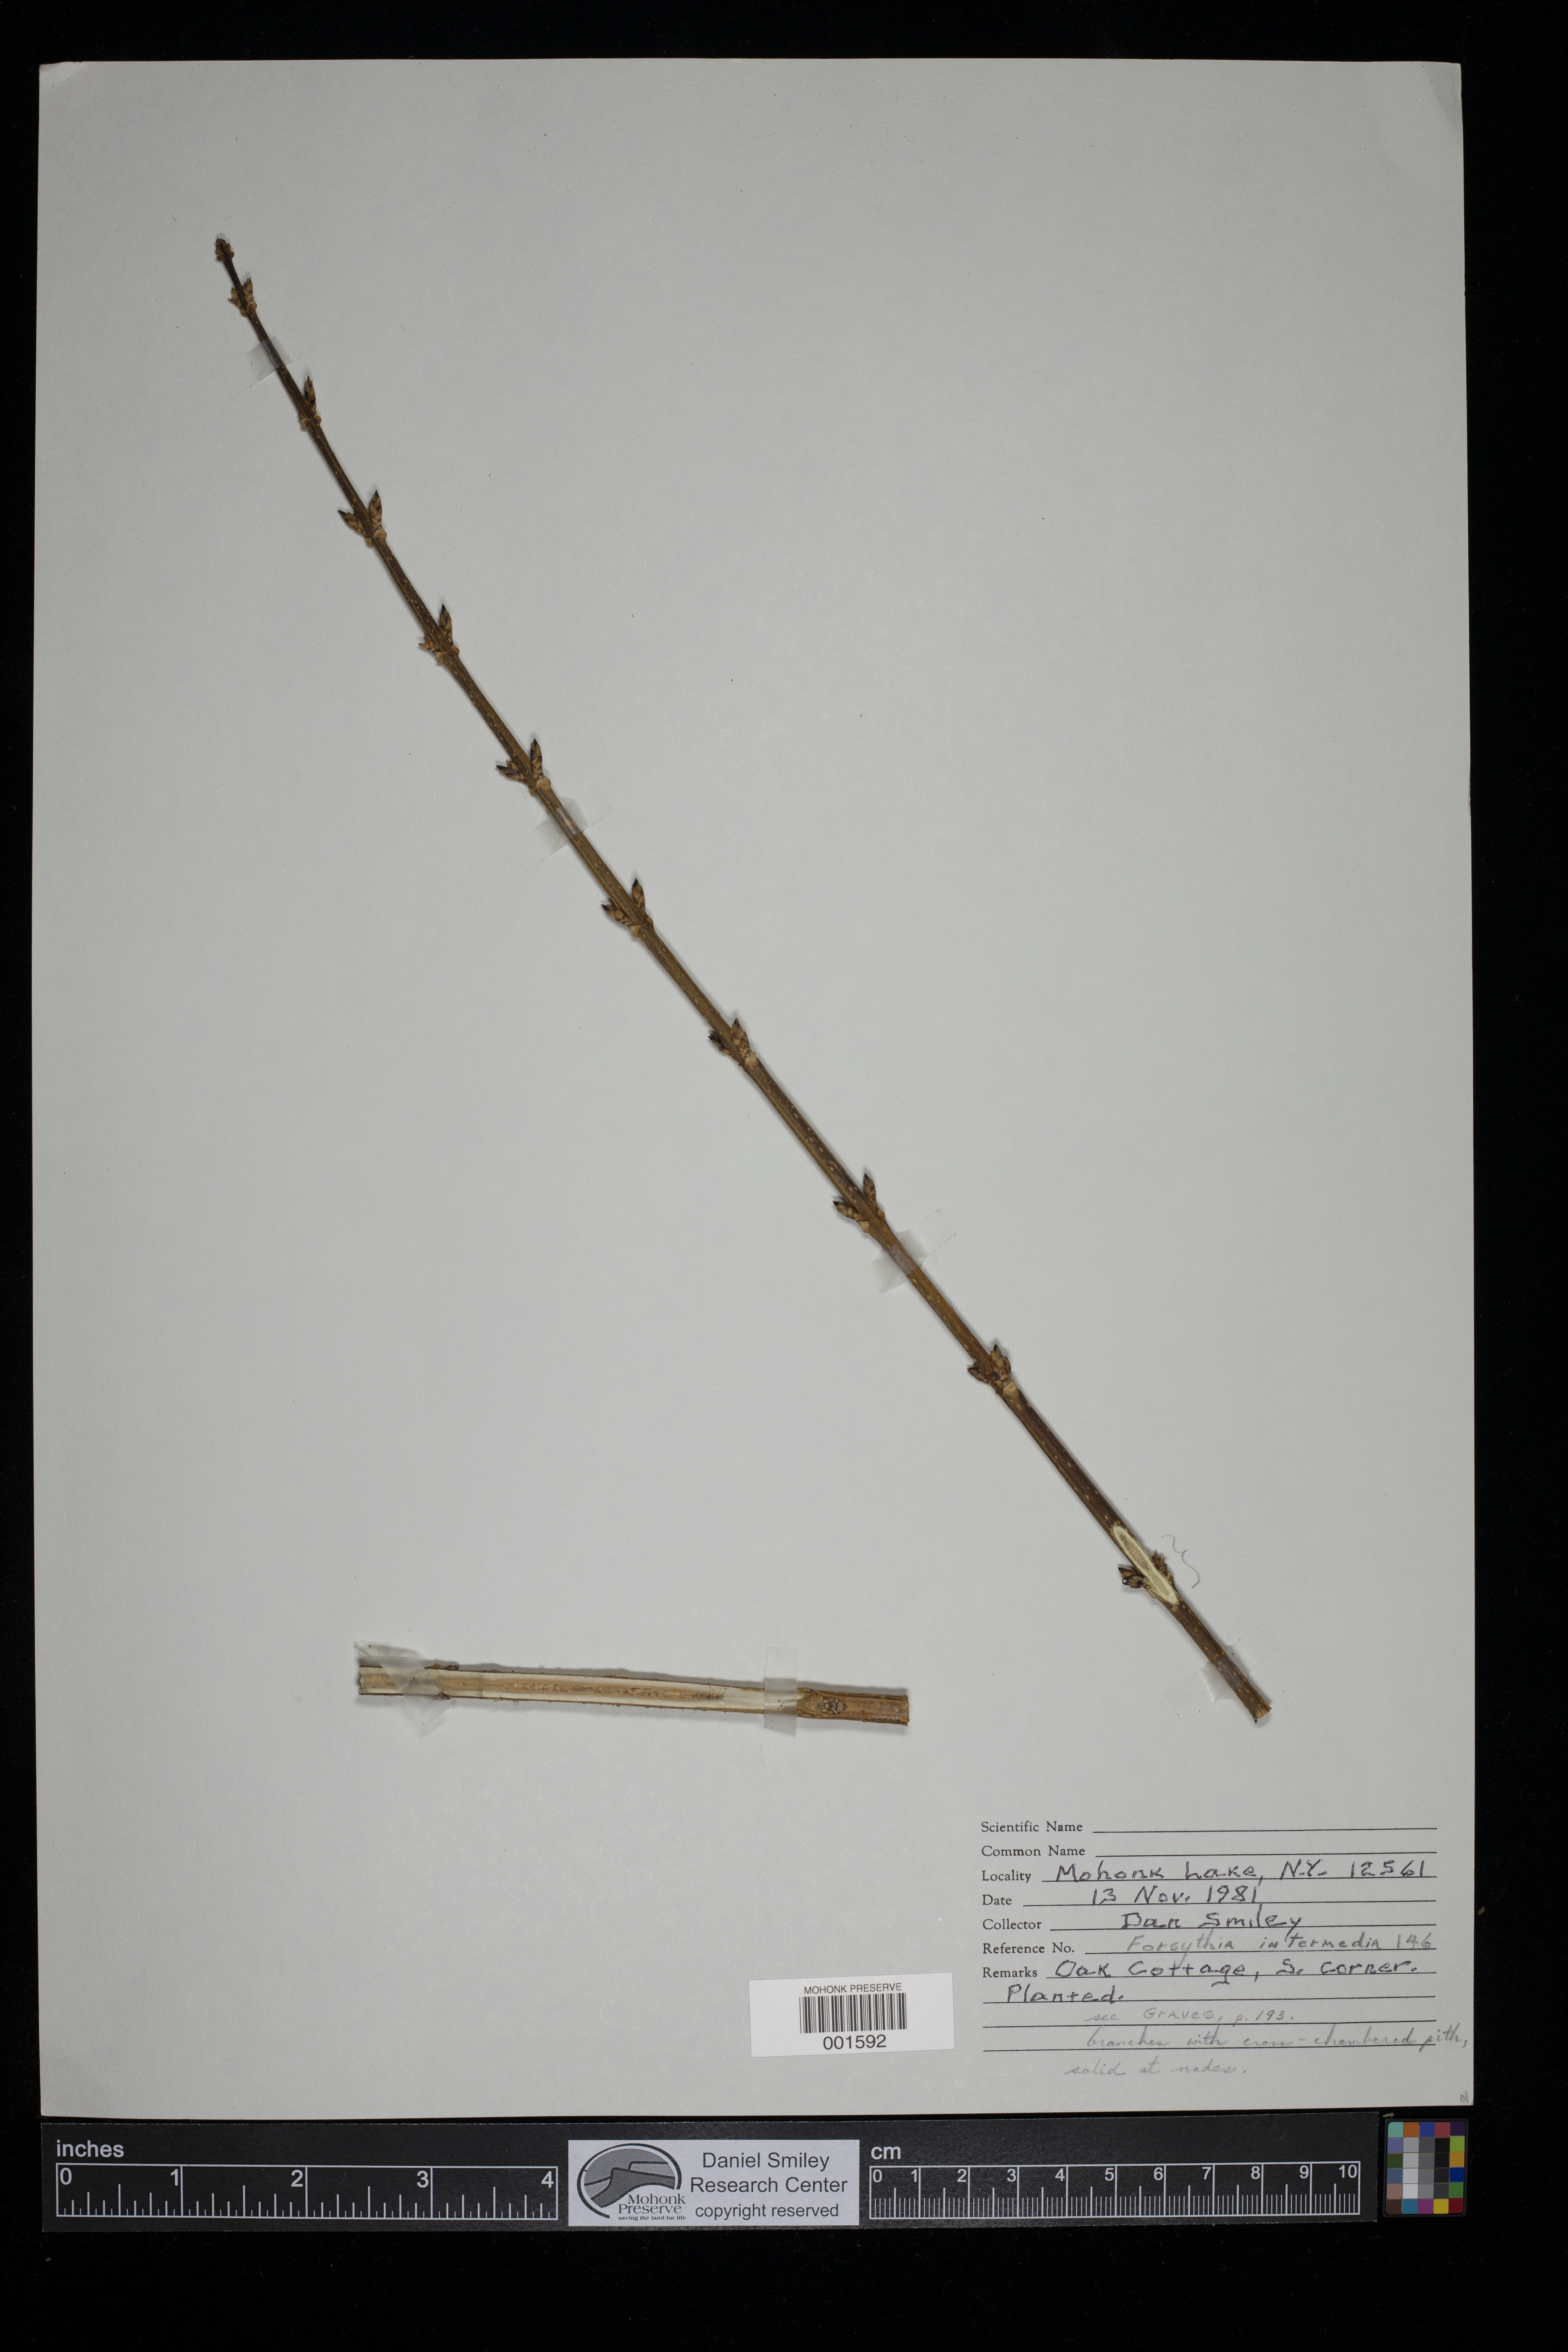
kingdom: Plantae
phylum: Tracheophyta
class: Magnoliopsida
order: Lamiales
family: Oleaceae
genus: Forsythia
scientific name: Forsythia intermedia
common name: Forsythia
